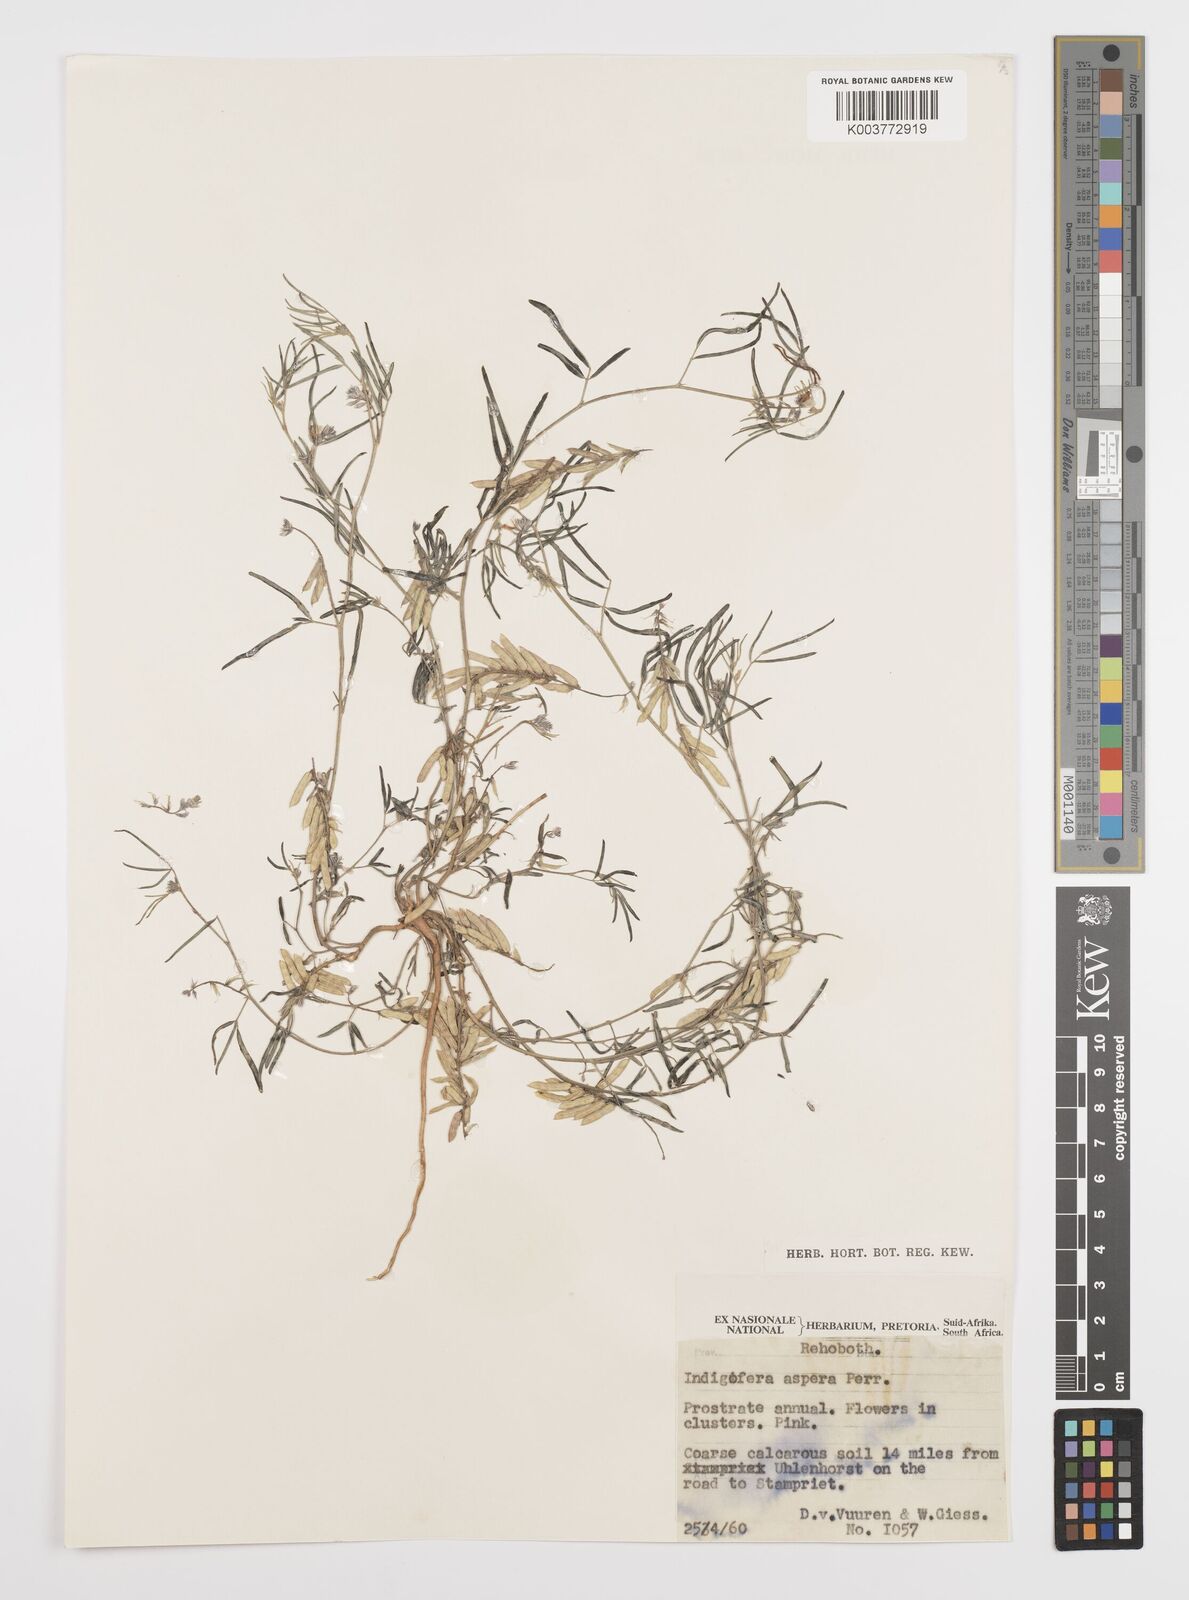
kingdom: Plantae
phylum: Tracheophyta
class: Magnoliopsida
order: Fabales
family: Fabaceae
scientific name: Fabaceae
